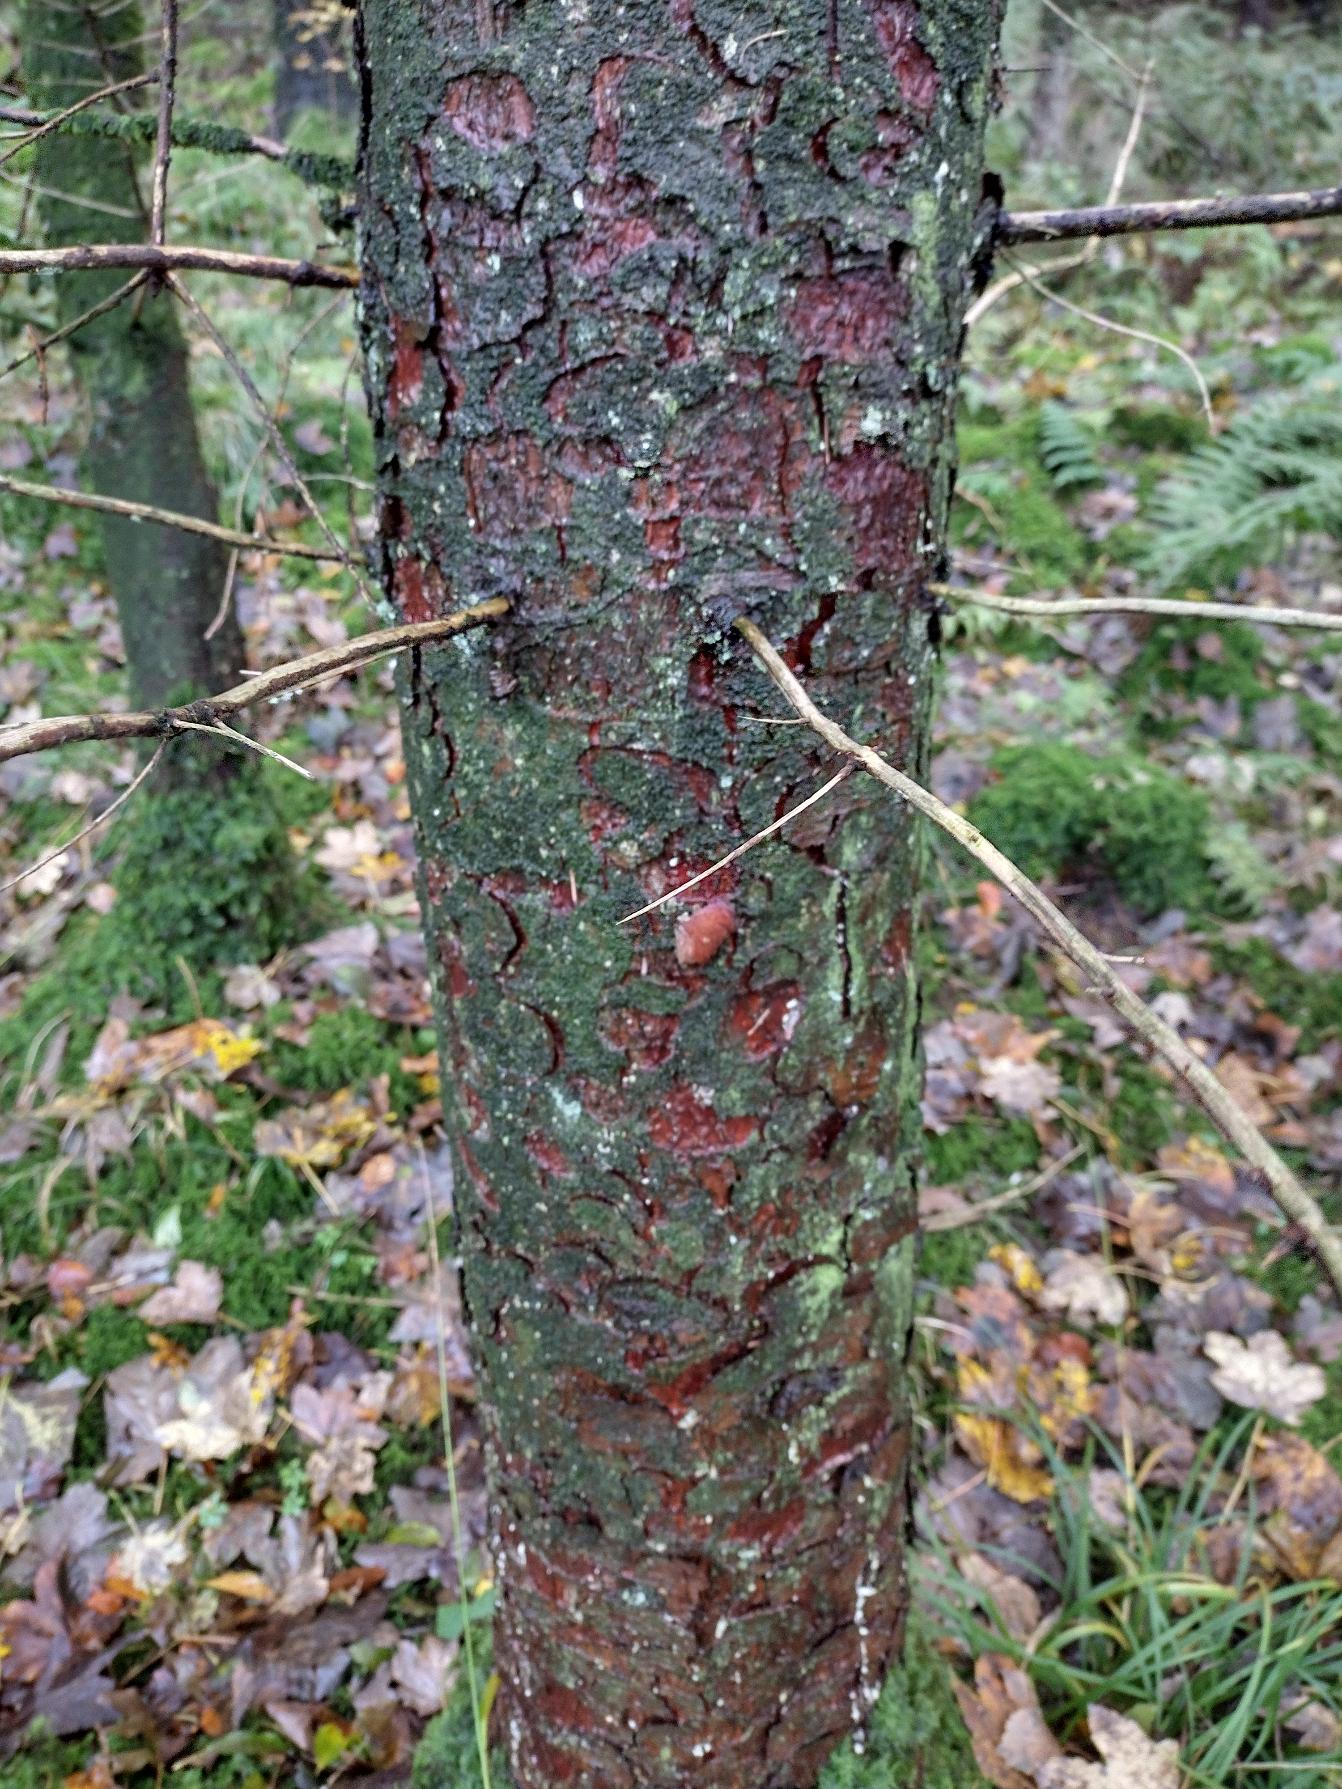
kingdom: Plantae
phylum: Tracheophyta
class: Pinopsida
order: Pinales
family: Pinaceae
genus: Picea
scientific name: Picea sitchensis
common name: Sitka-gran
